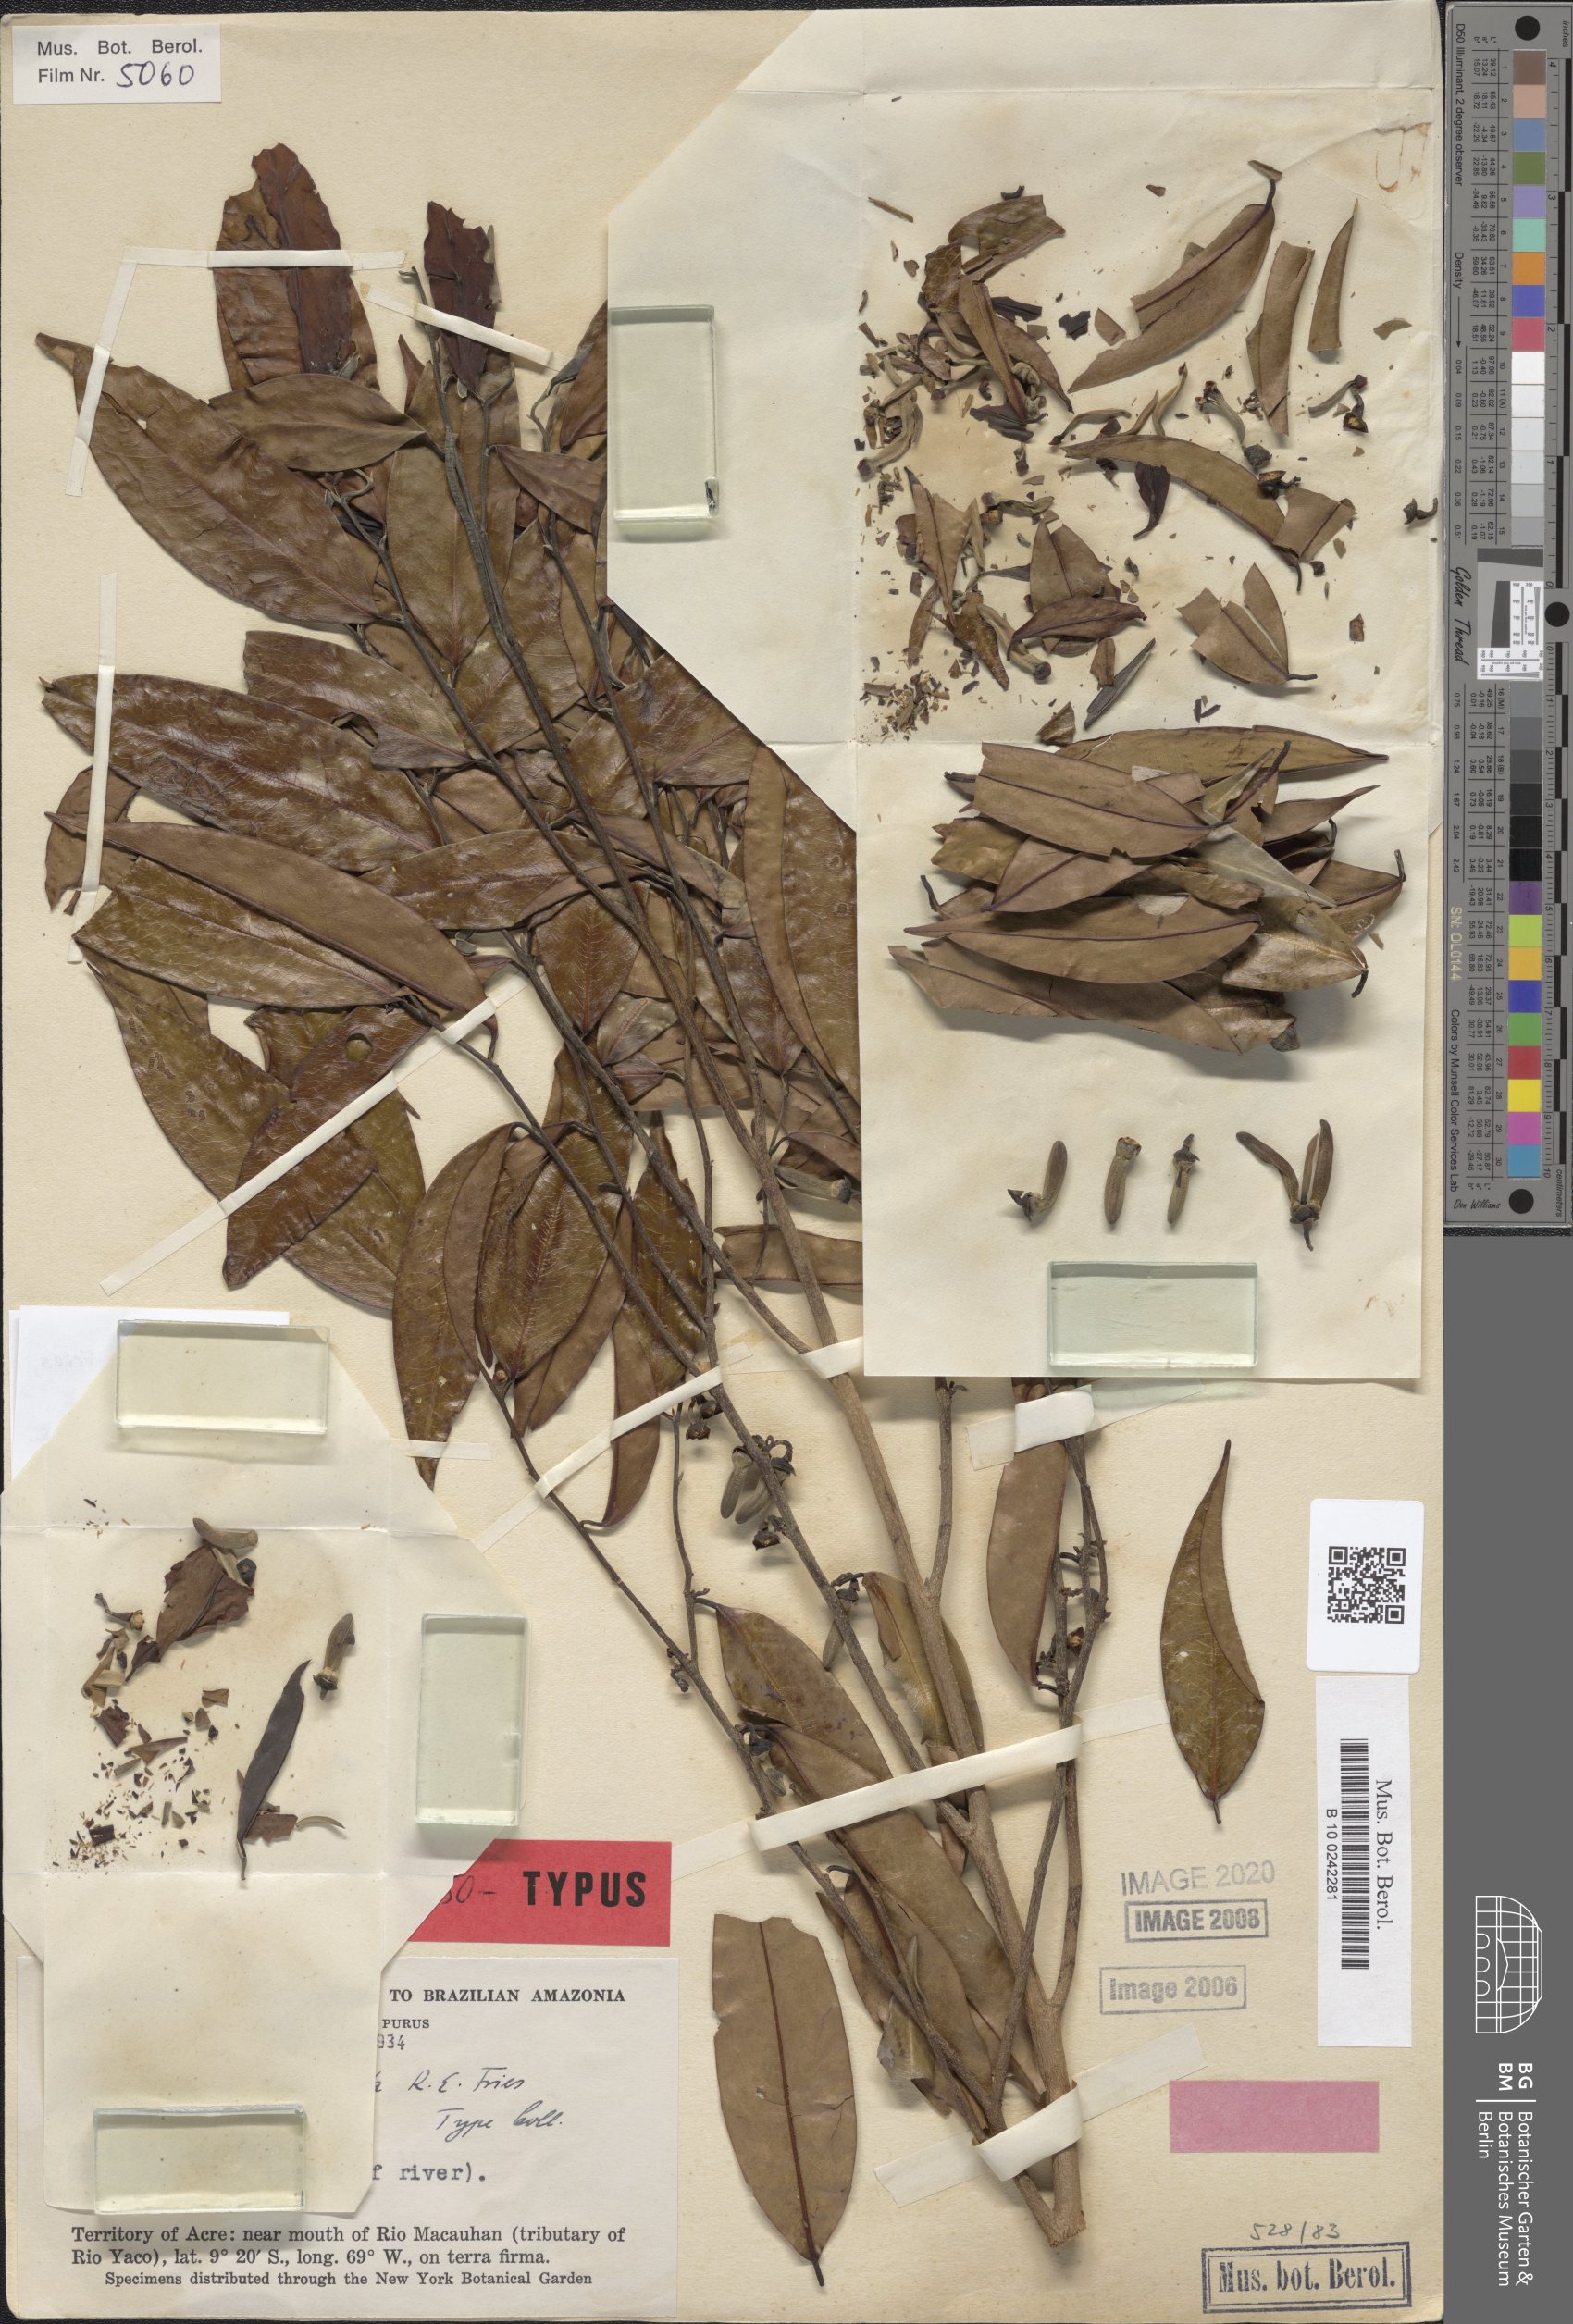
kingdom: Plantae
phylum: Tracheophyta
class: Magnoliopsida
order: Magnoliales
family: Annonaceae
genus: Xylopia
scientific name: Xylopia
